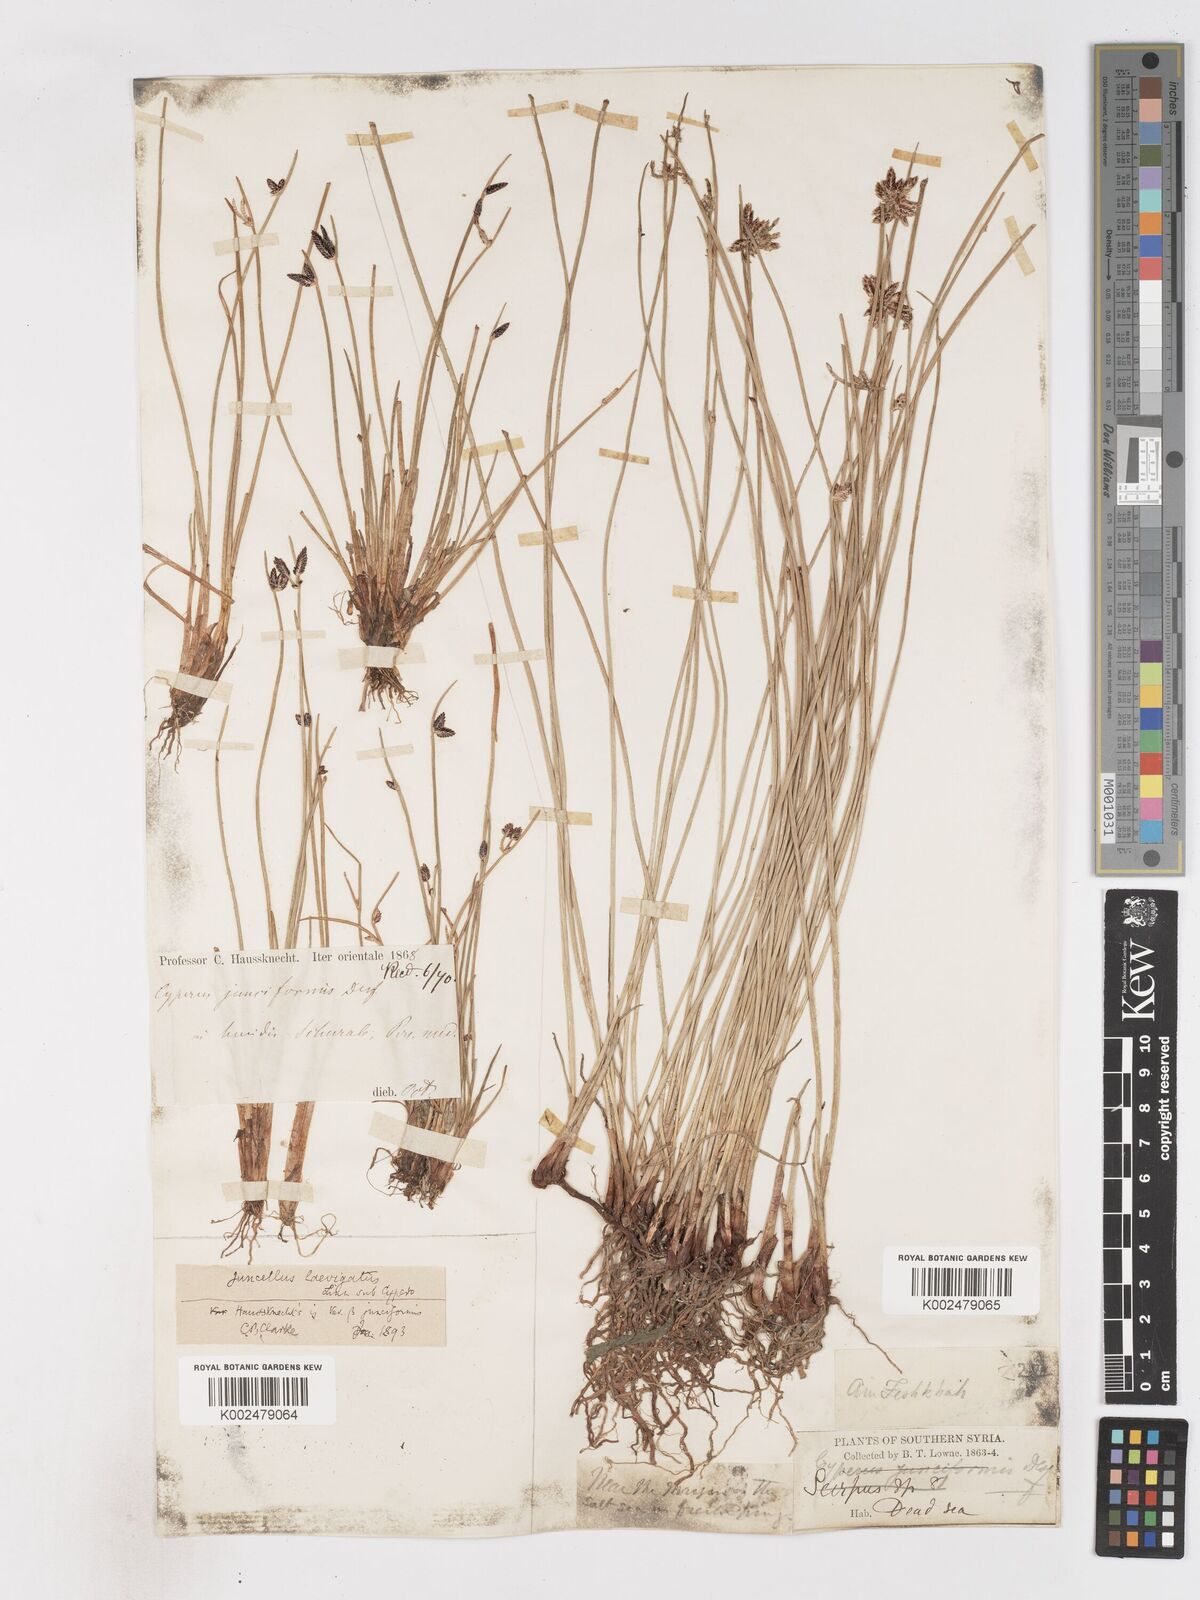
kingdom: Plantae
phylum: Tracheophyta
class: Liliopsida
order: Poales
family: Cyperaceae
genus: Cyperus
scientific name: Cyperus laevigatus
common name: Smooth flat sedge
